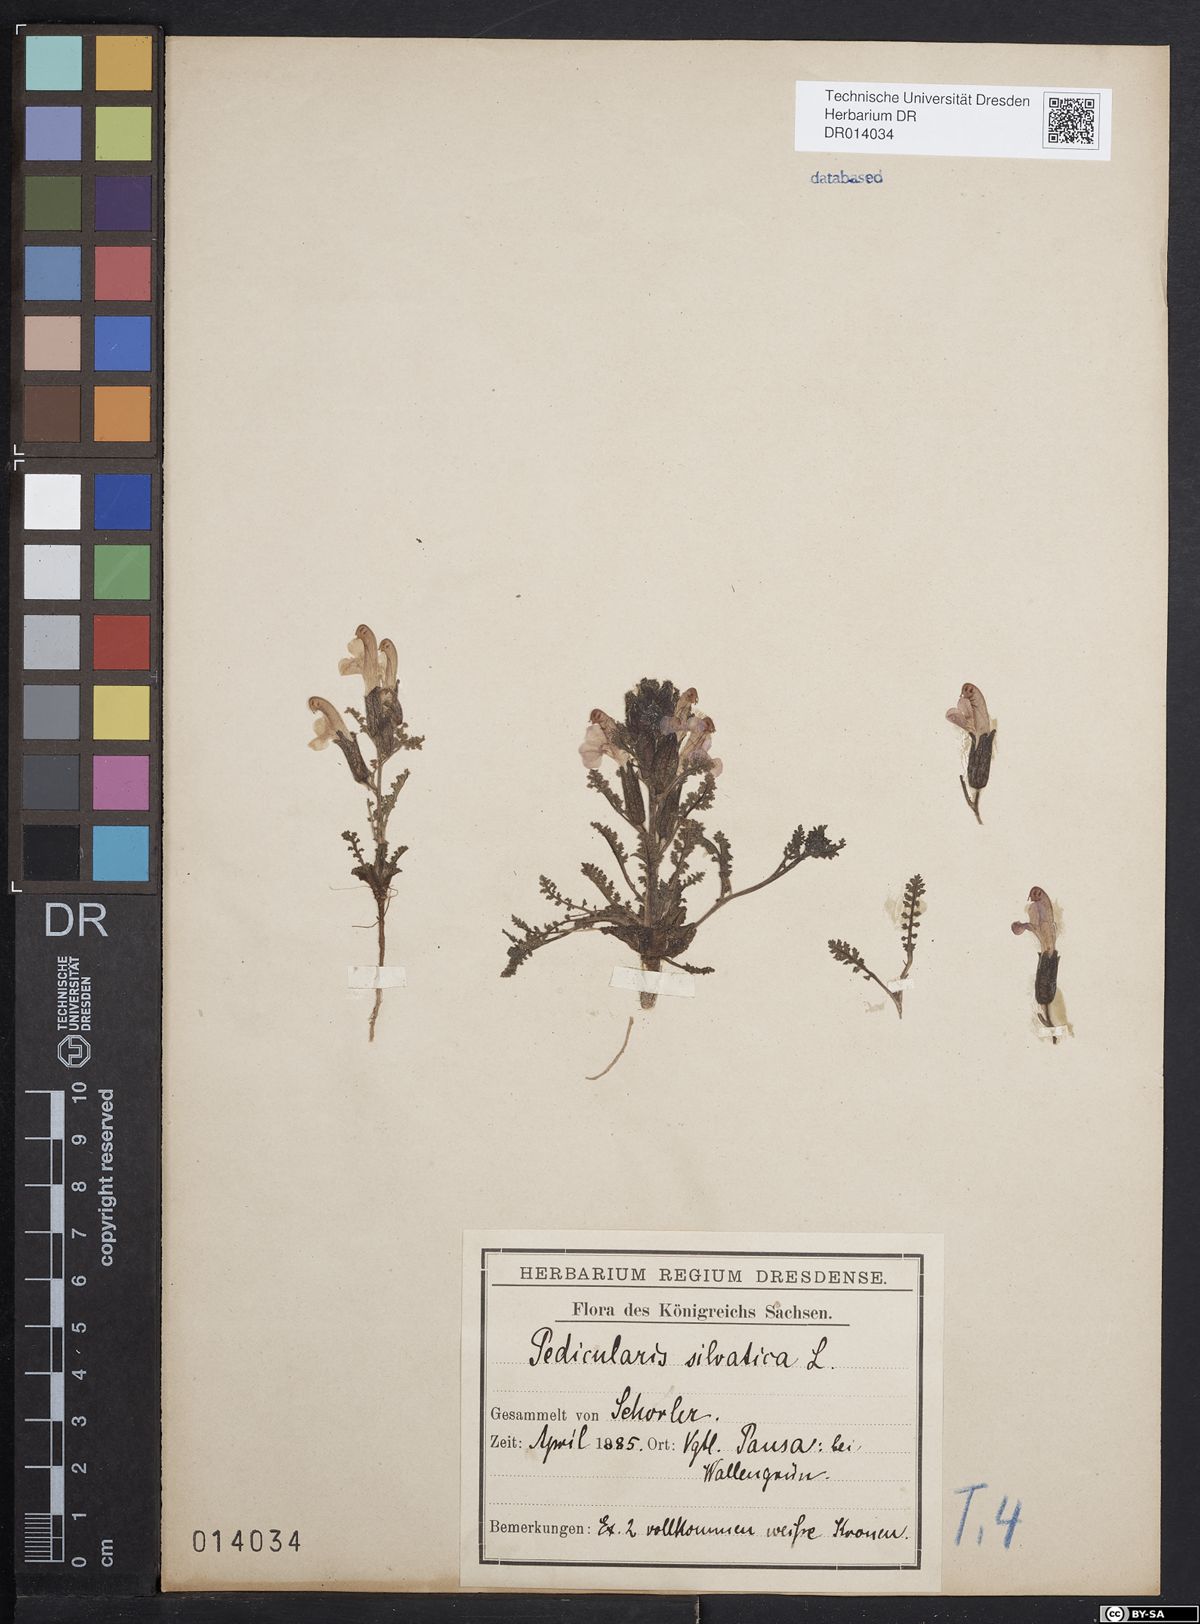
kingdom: Plantae
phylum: Tracheophyta
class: Magnoliopsida
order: Lamiales
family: Orobanchaceae
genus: Pedicularis
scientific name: Pedicularis sylvatica
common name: Lousewort
